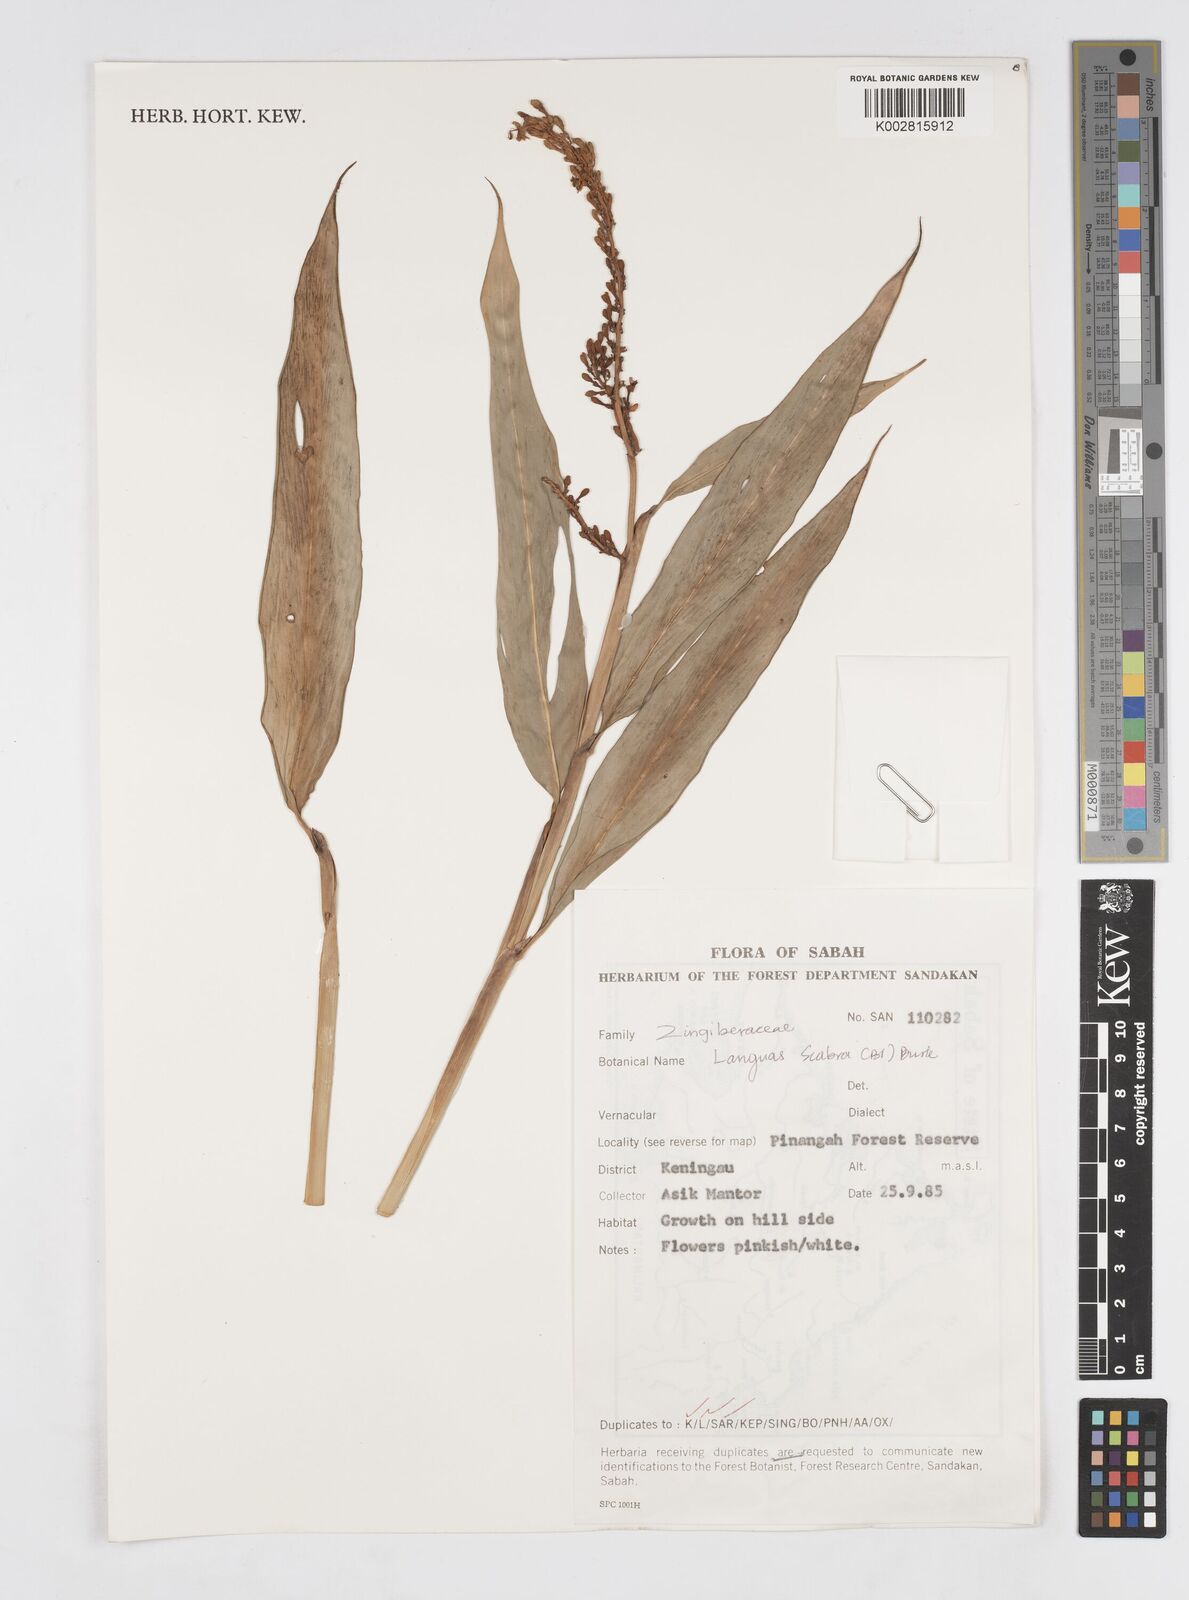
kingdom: Plantae
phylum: Tracheophyta
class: Liliopsida
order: Zingiberales
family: Zingiberaceae
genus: Alpinia
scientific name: Alpinia aquatica
